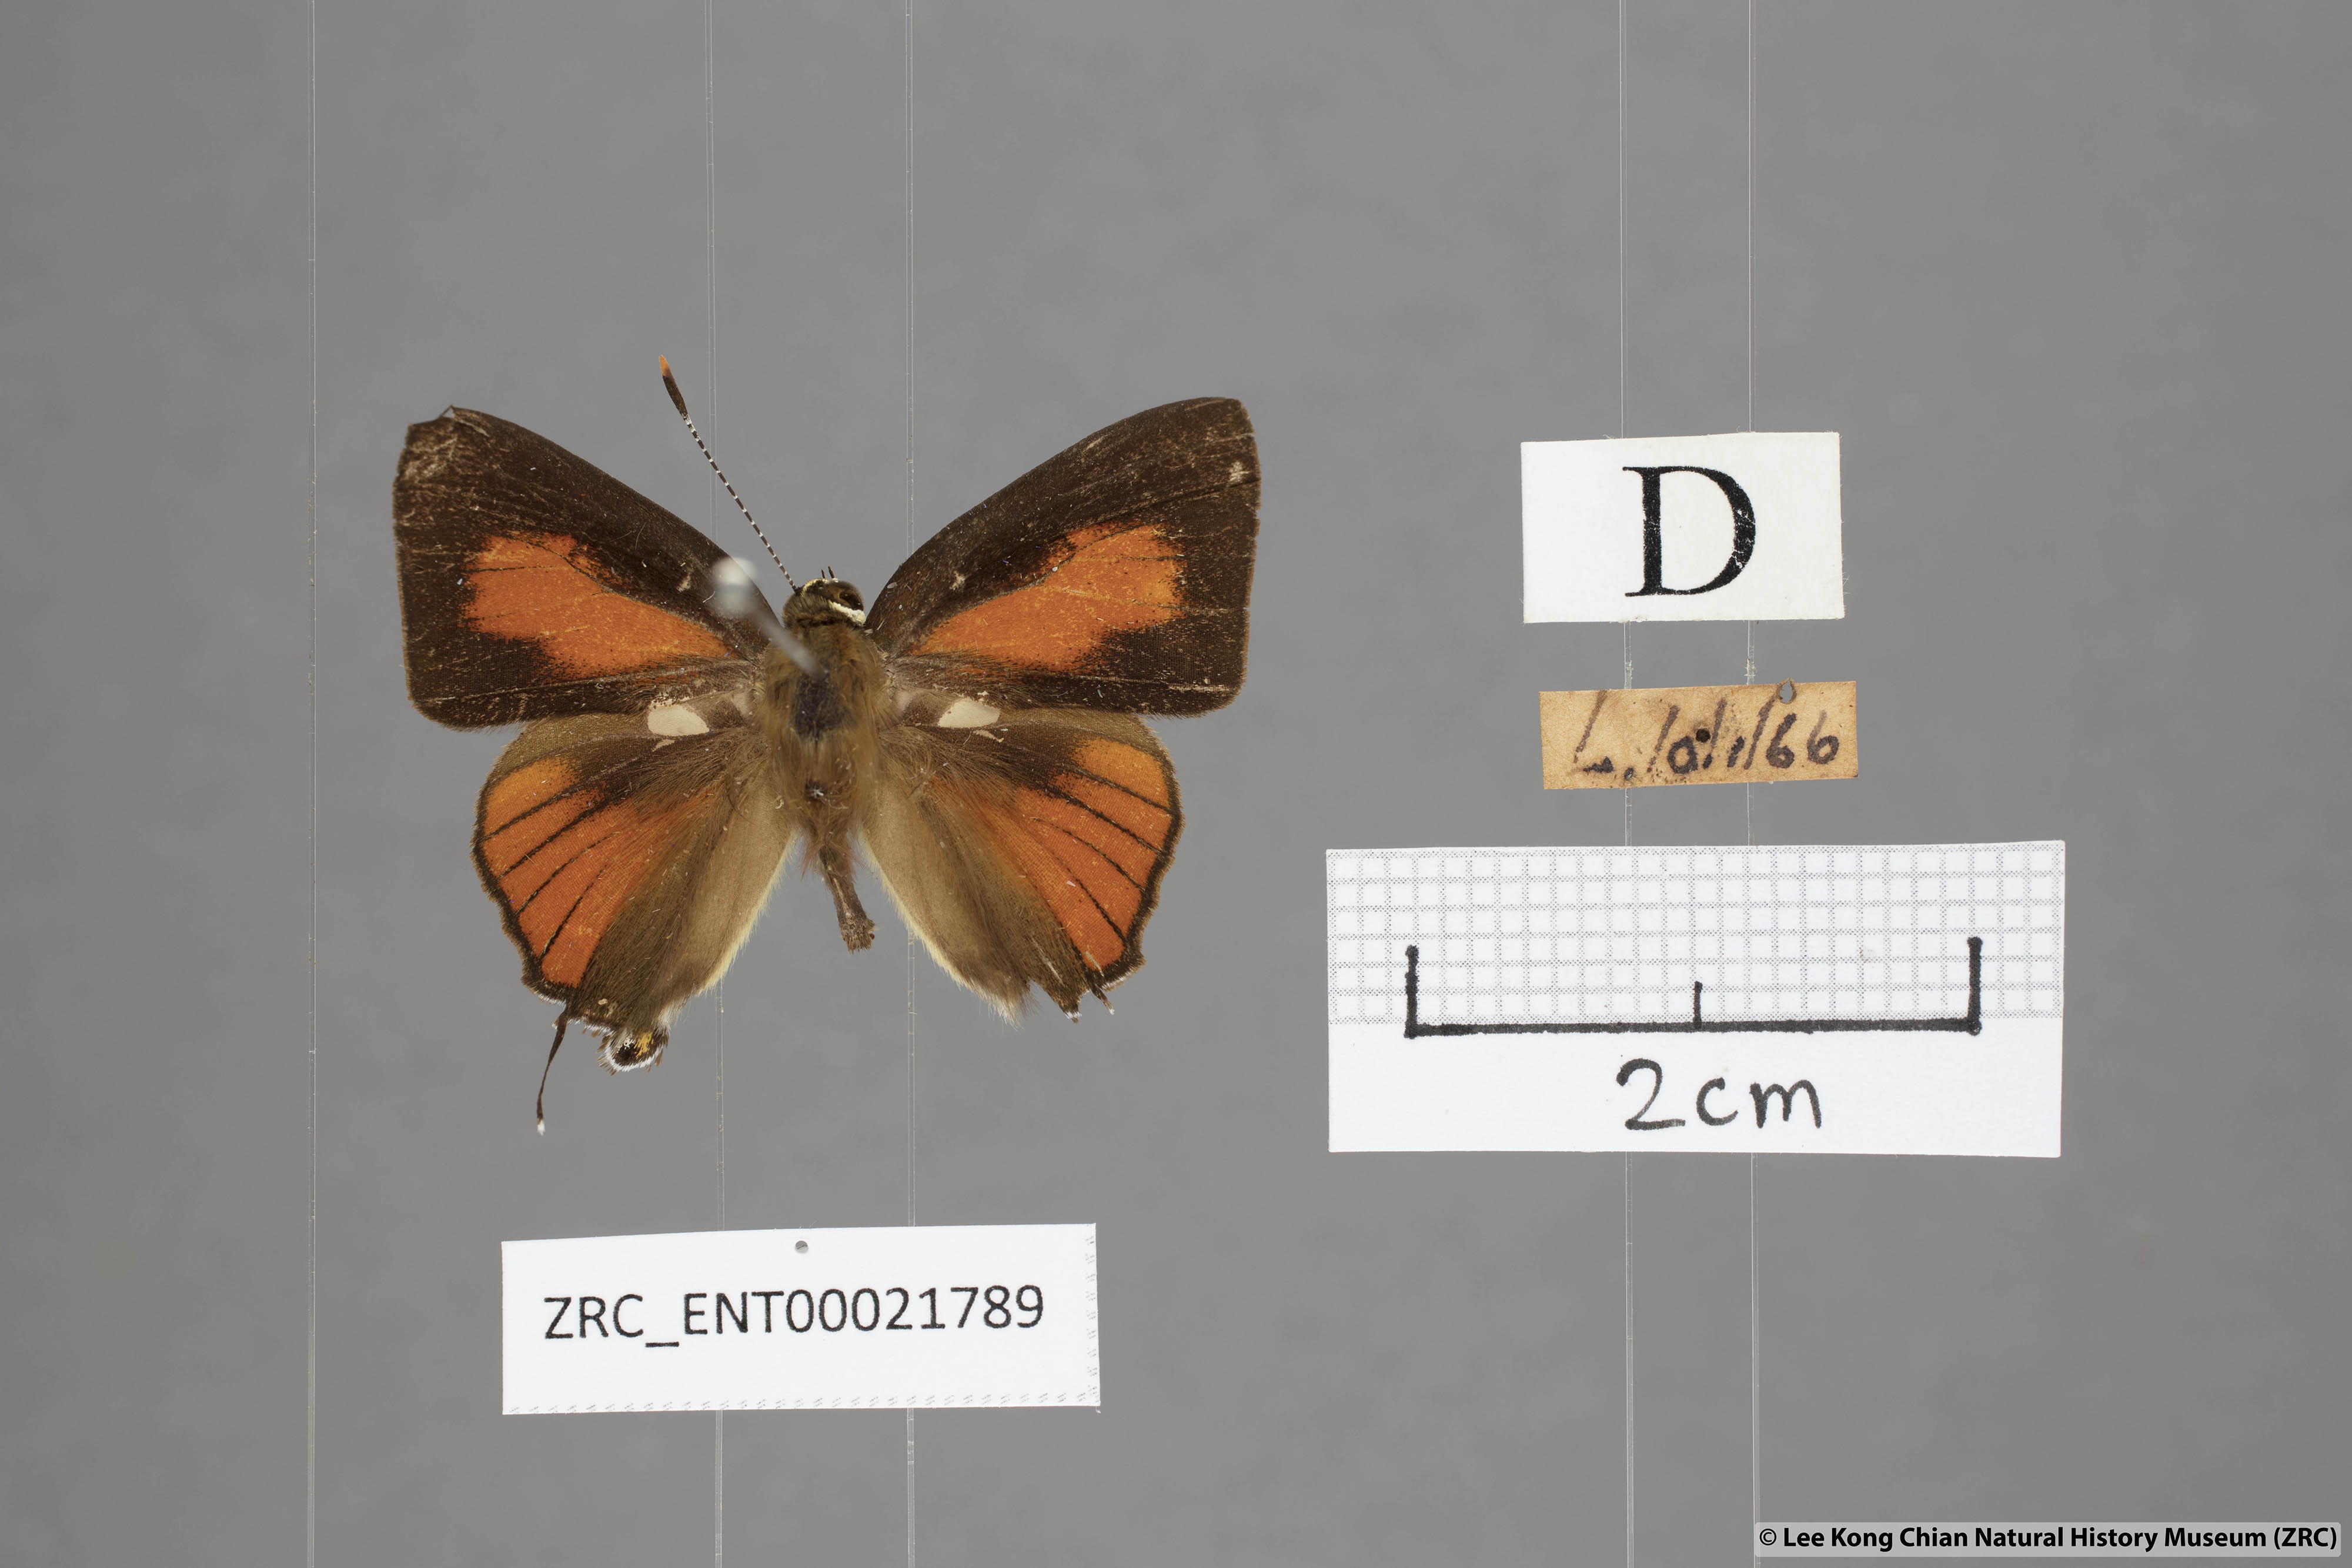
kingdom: Animalia
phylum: Arthropoda
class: Insecta
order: Lepidoptera
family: Lycaenidae
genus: Rapala
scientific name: Rapala dieneces
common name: Scarlet flash
